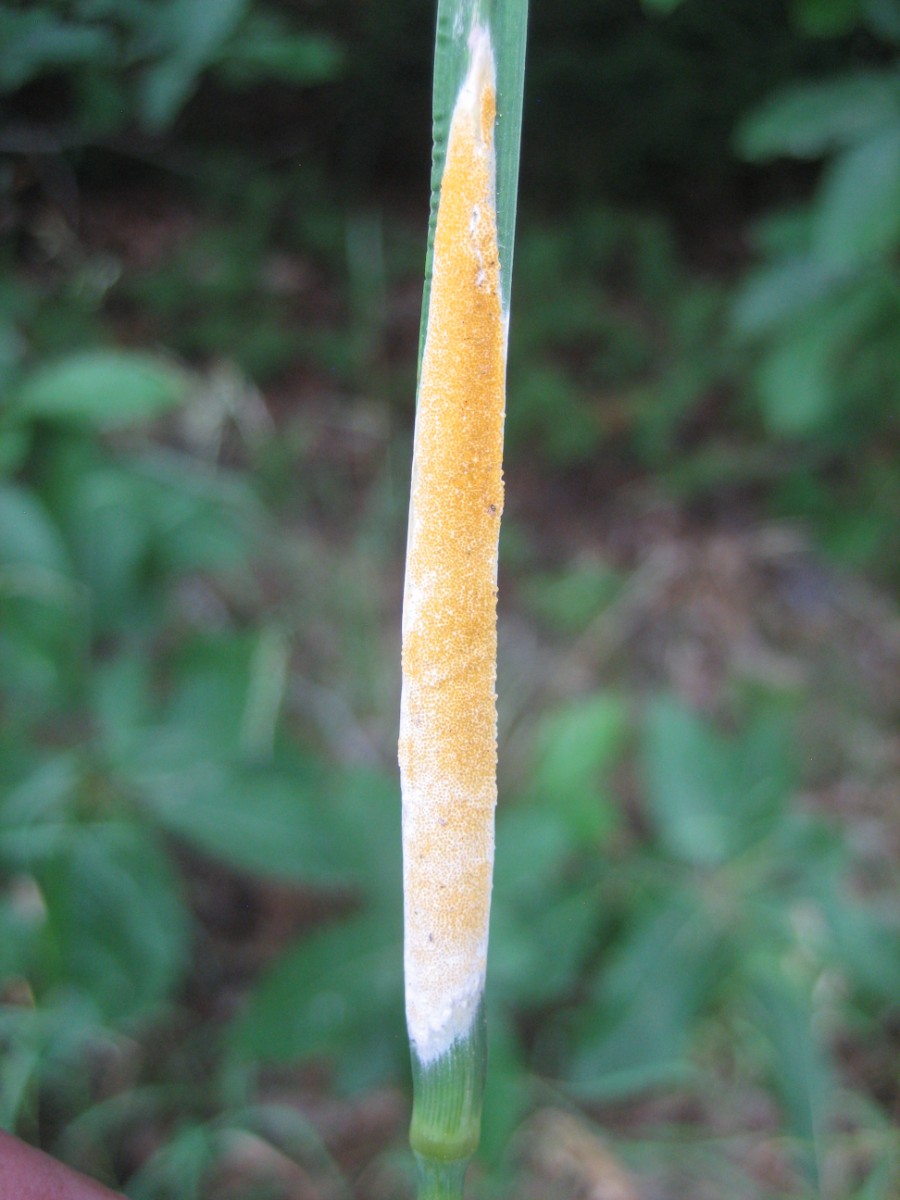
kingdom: Fungi
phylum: Ascomycota
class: Sordariomycetes
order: Hypocreales
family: Clavicipitaceae
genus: Epichloe
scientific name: Epichloe typhina
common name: almindelig kernerør
